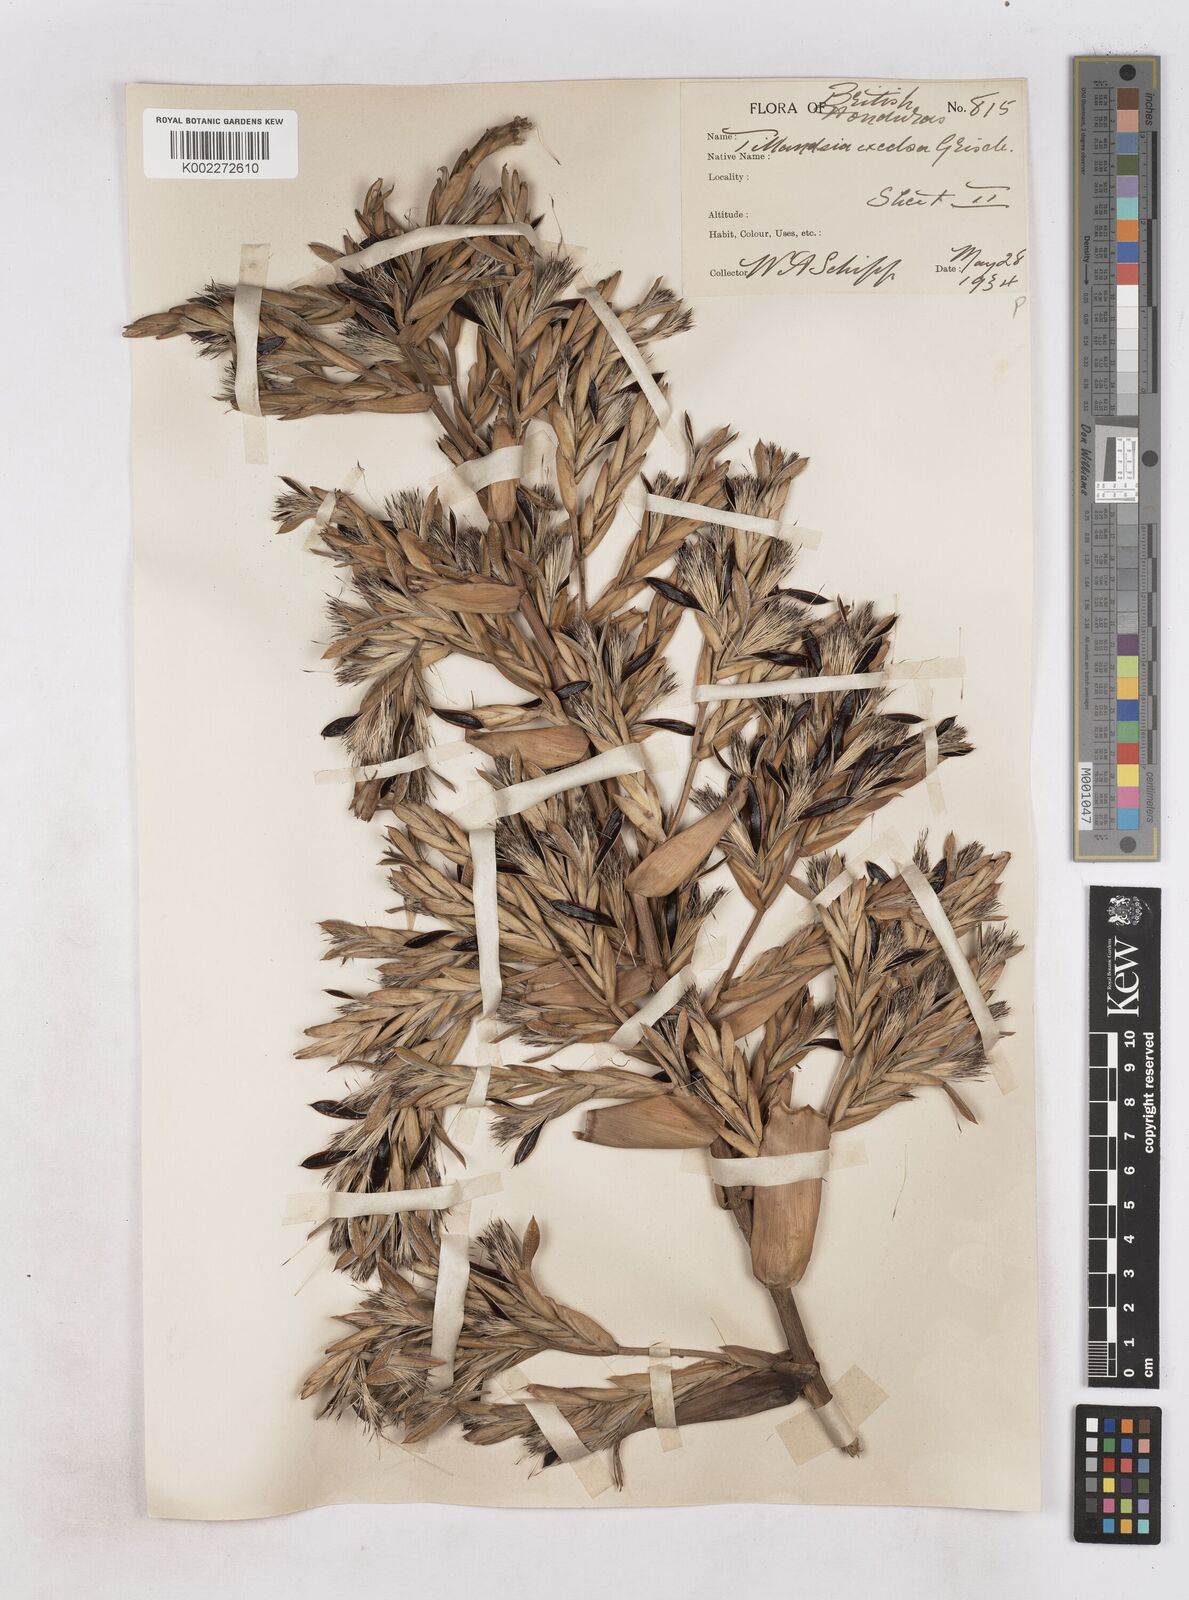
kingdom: Plantae
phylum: Tracheophyta
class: Liliopsida
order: Poales
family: Bromeliaceae
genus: Tillandsia
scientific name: Tillandsia excelsa
